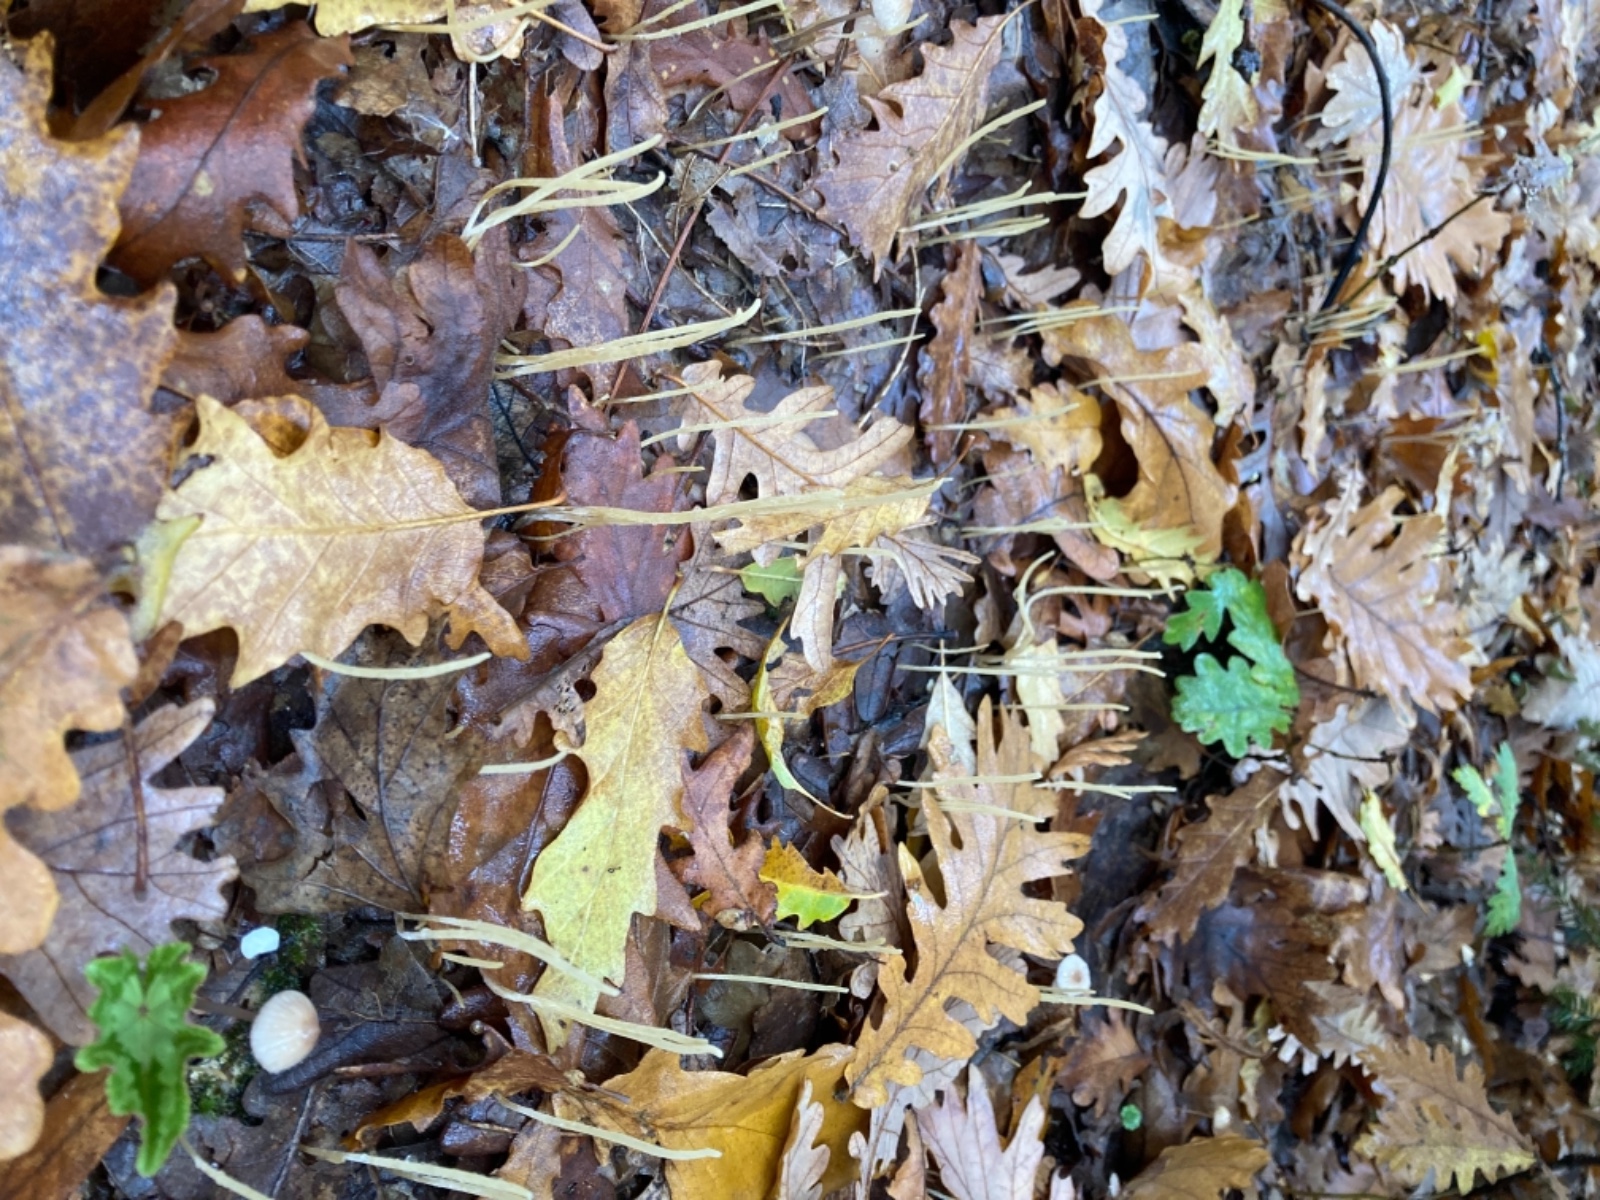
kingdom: Fungi
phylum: Basidiomycota
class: Agaricomycetes
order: Agaricales
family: Typhulaceae
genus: Typhula
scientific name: Typhula juncea
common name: trådagtig rørkølle
